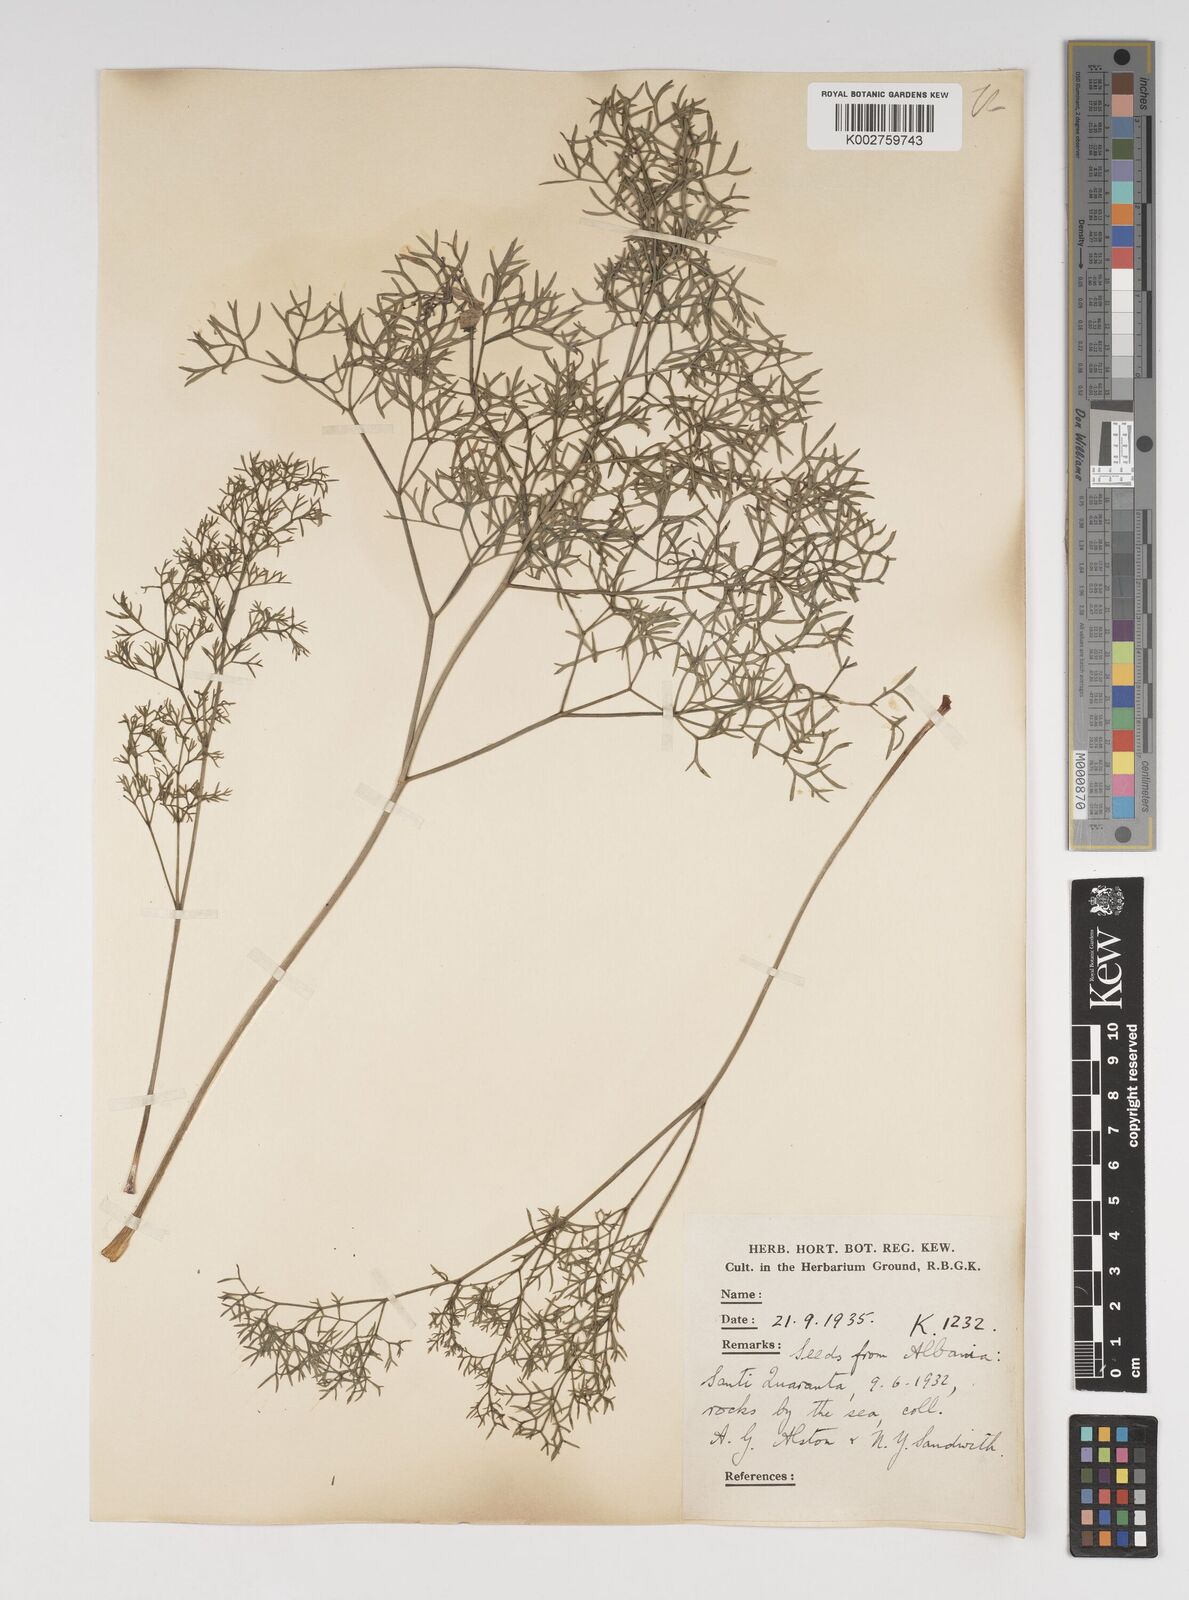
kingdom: Plantae
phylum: Tracheophyta
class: Magnoliopsida
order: Apiales
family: Apiaceae
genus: Katapsuxis
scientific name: Katapsuxis silaifolia
